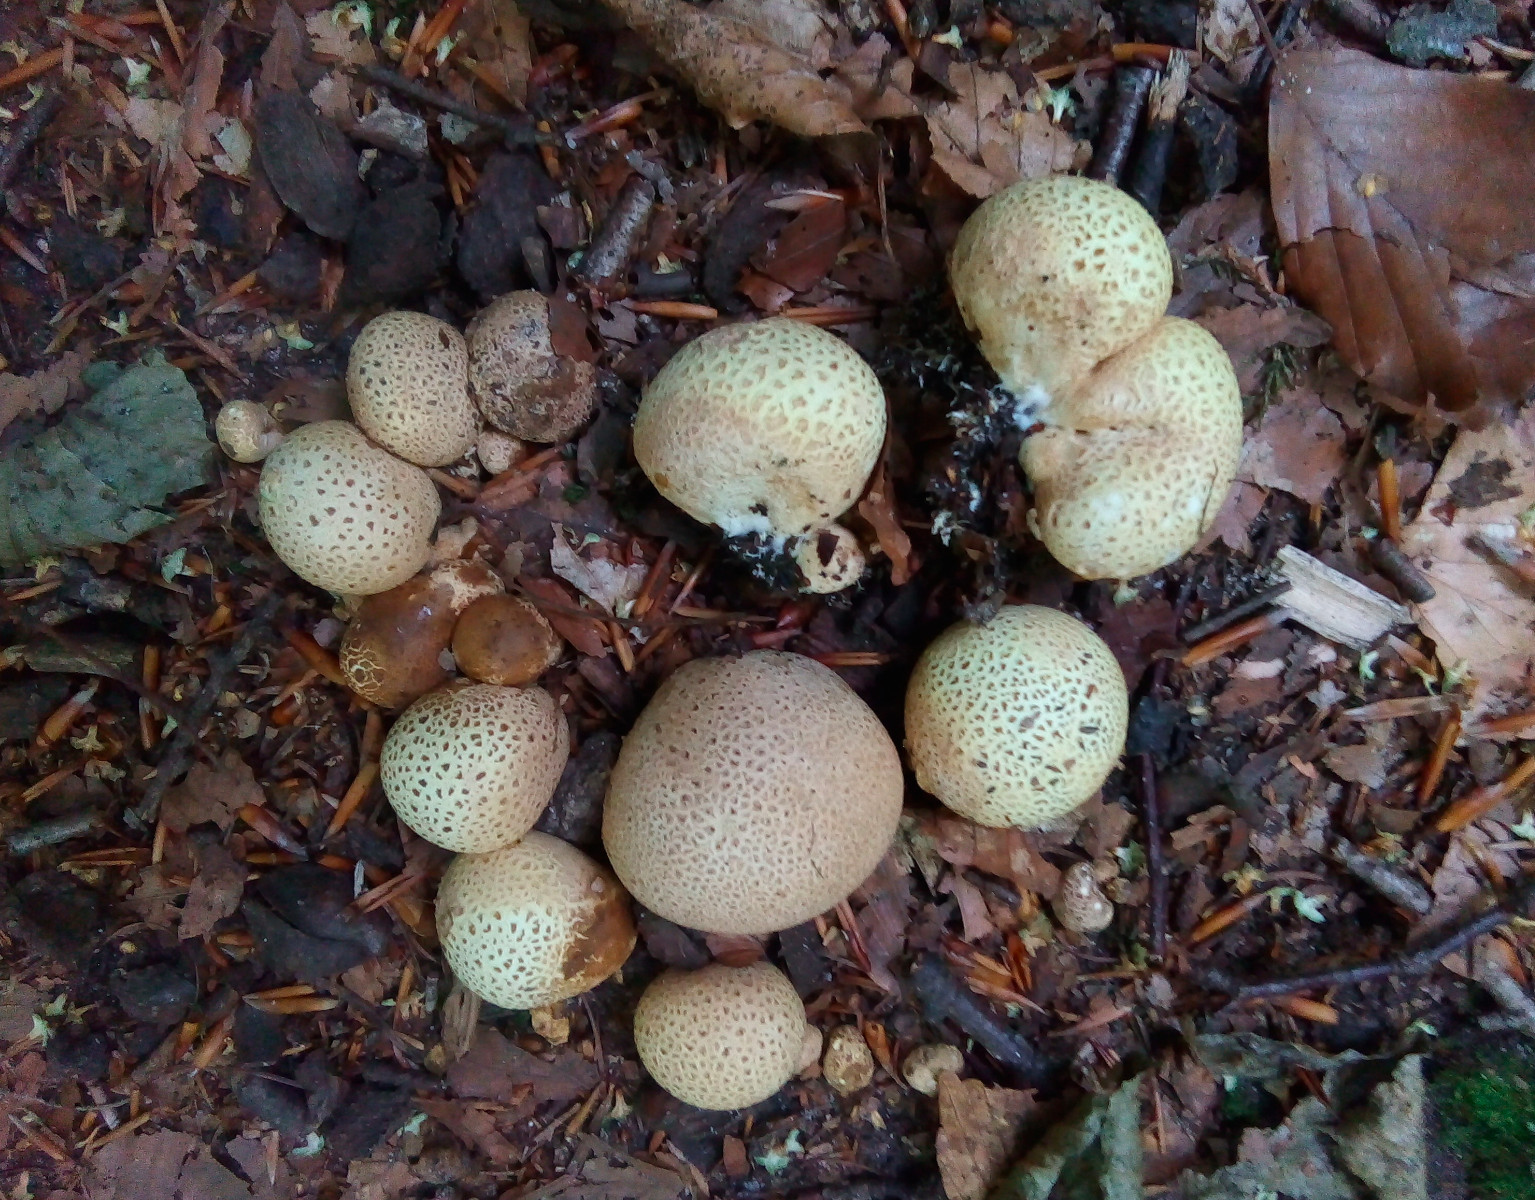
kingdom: Fungi
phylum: Basidiomycota
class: Agaricomycetes
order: Boletales
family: Sclerodermataceae
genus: Scleroderma
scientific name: Scleroderma citrinum
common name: almindelig bruskbold
